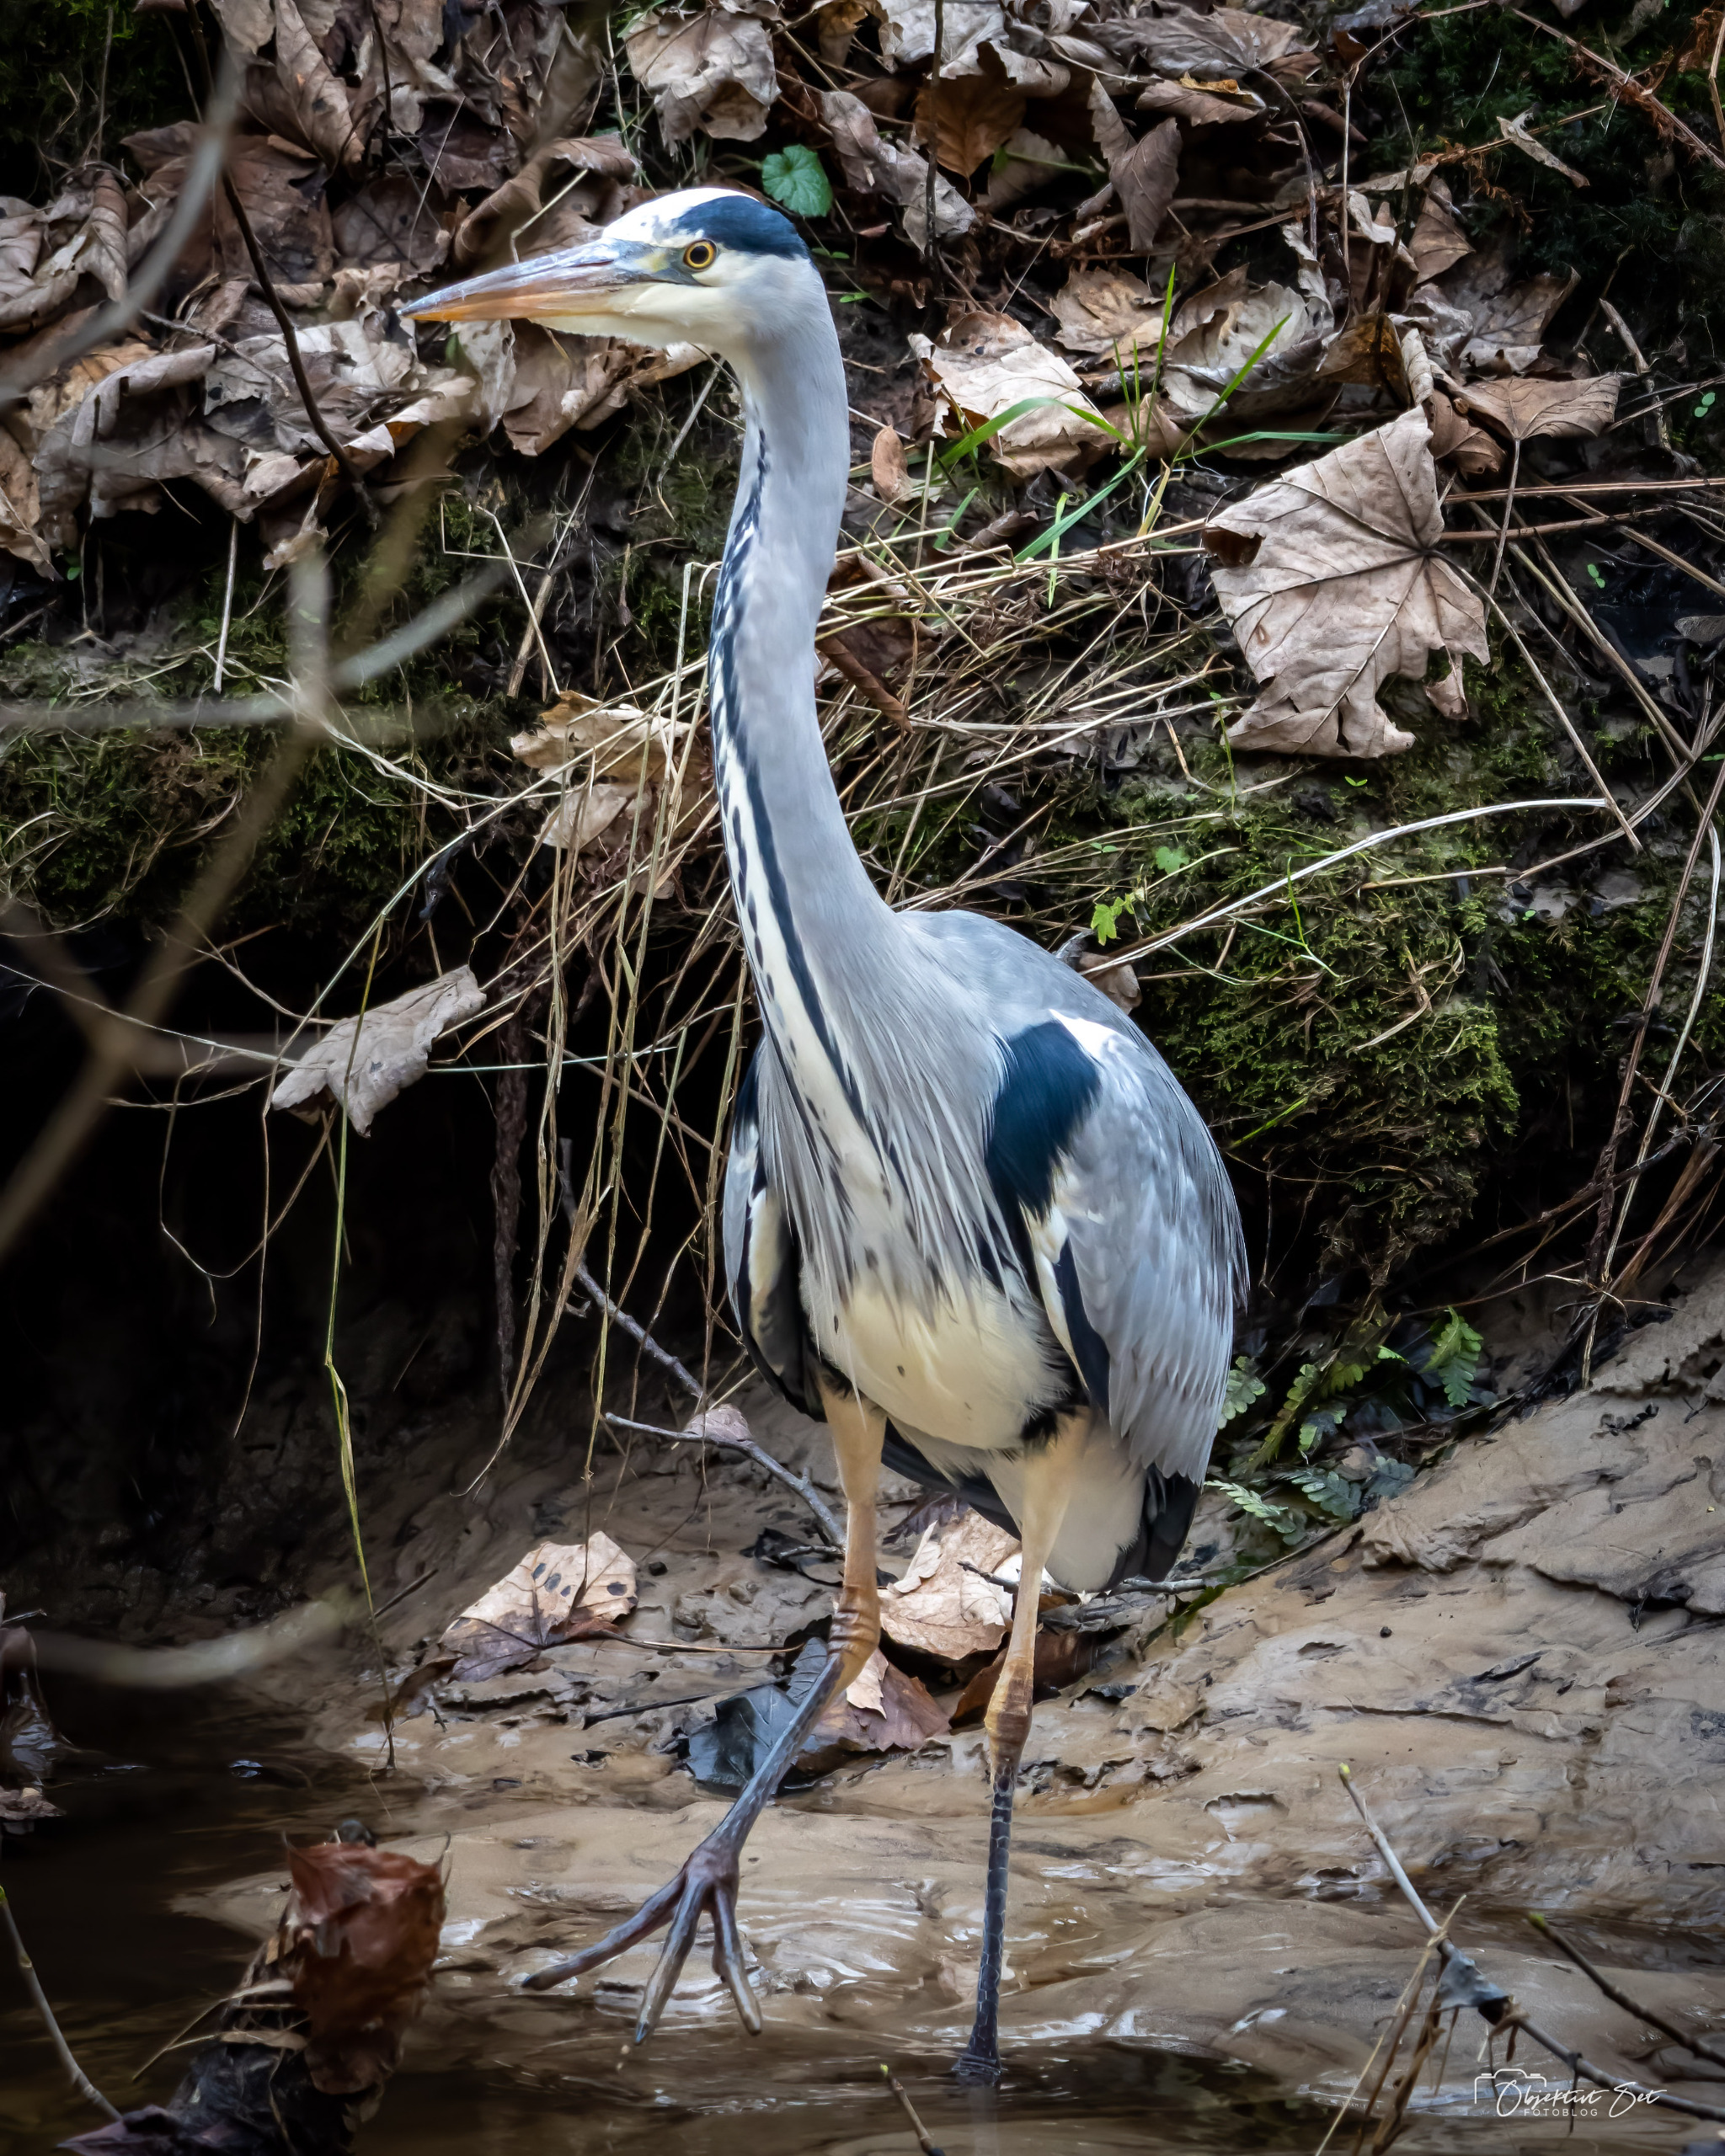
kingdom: Animalia
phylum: Chordata
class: Aves
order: Pelecaniformes
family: Ardeidae
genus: Ardea
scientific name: Ardea cinerea
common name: Fiskehejre
